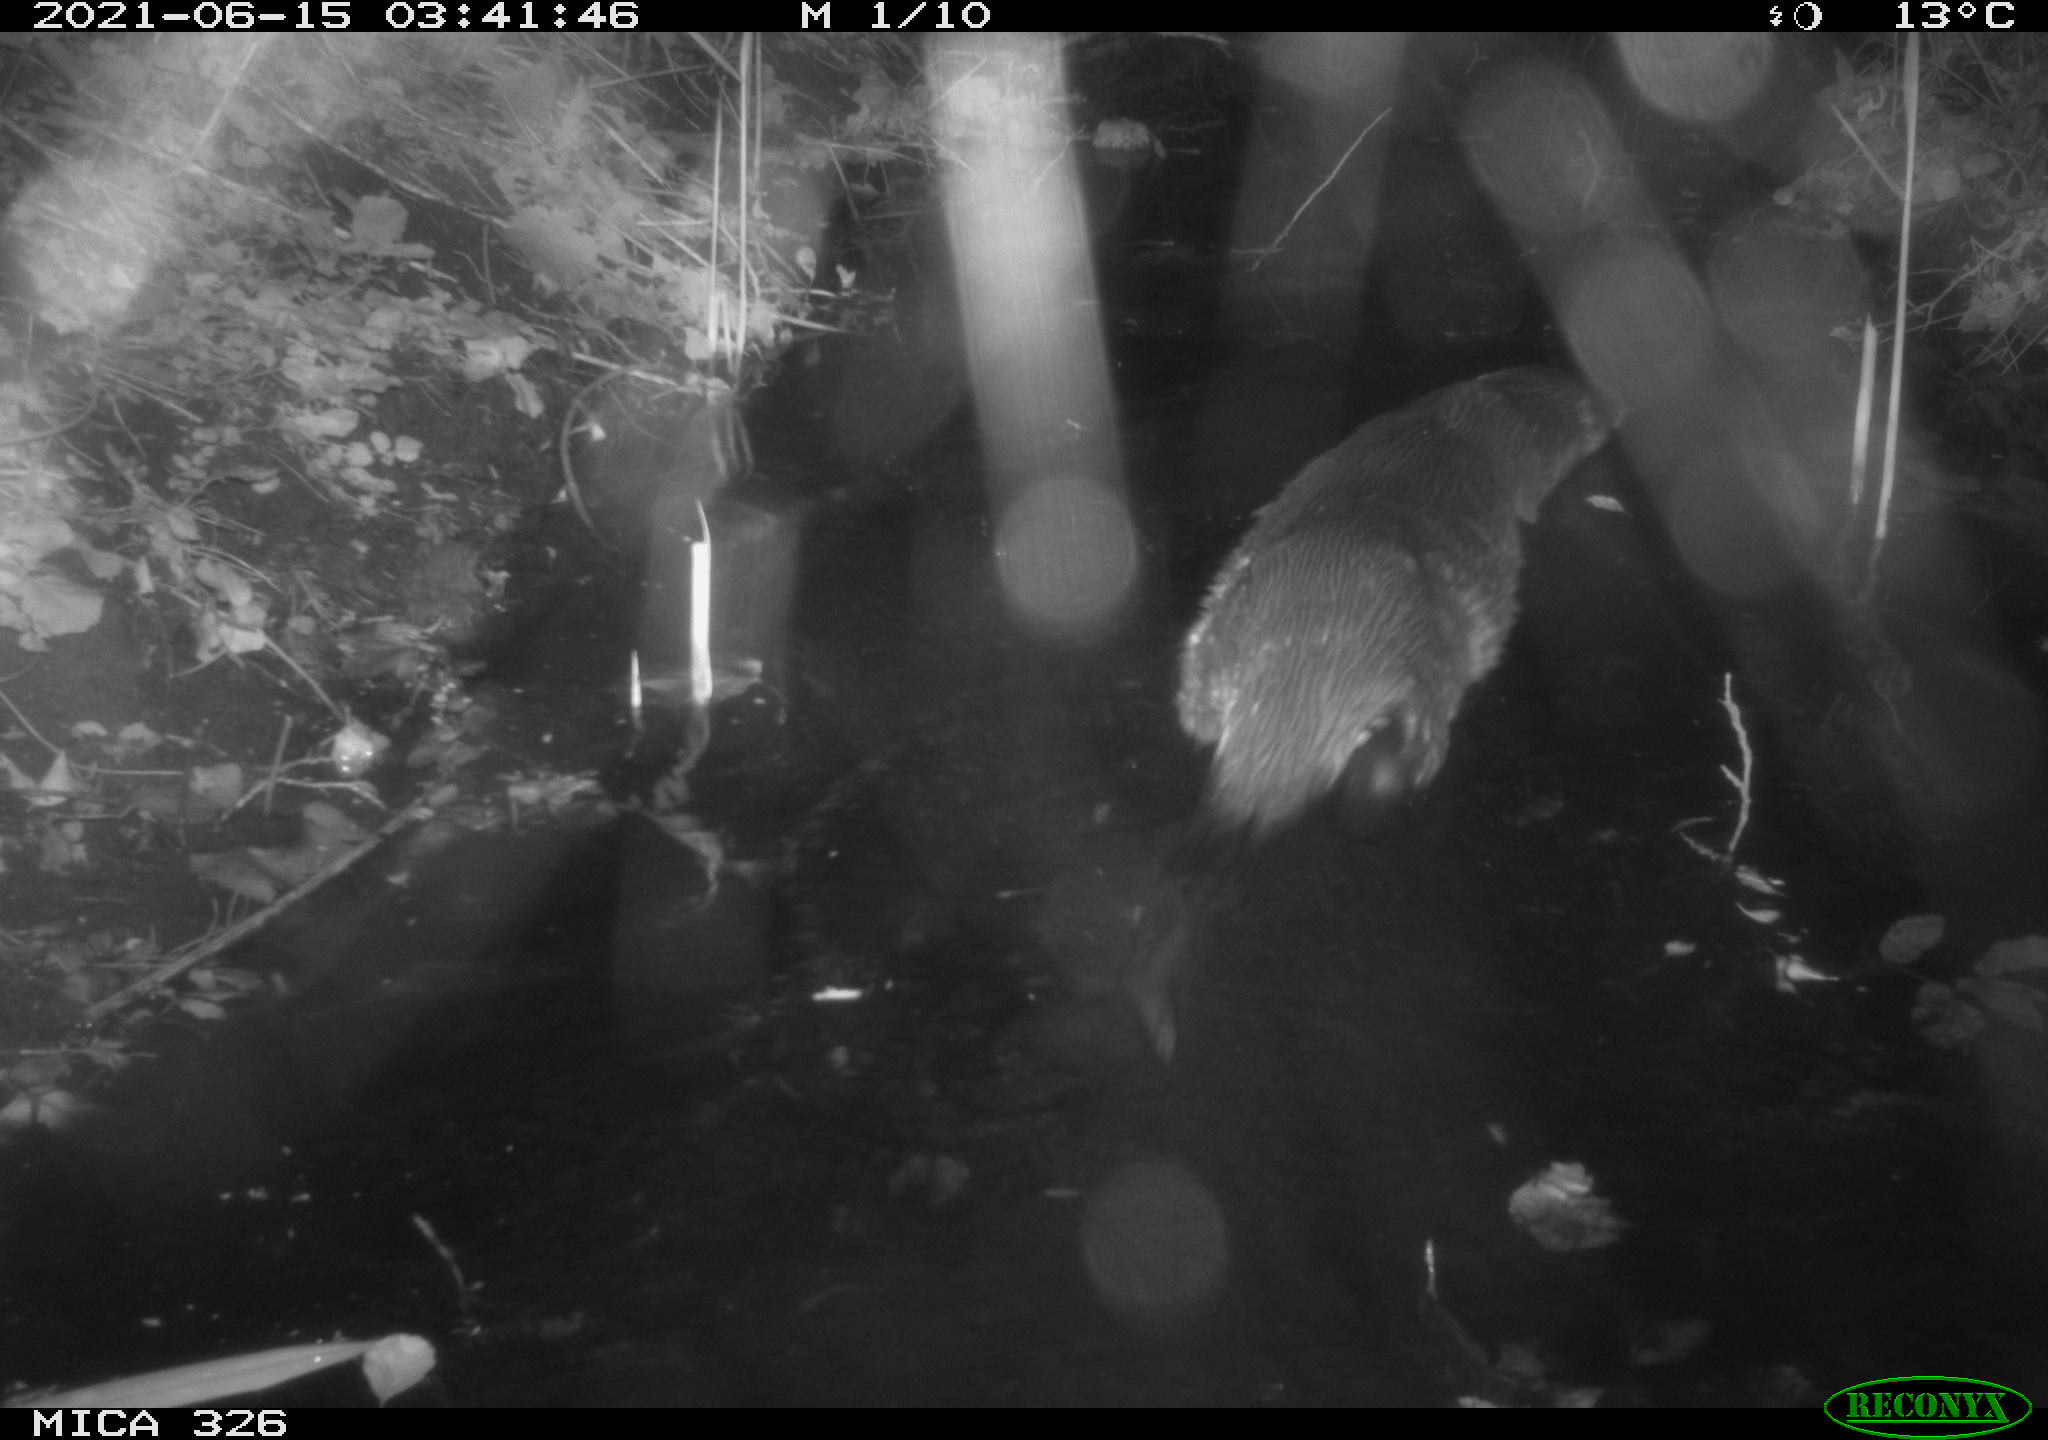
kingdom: Animalia
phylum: Chordata
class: Mammalia
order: Carnivora
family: Mustelidae
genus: Lutra
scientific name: Lutra lutra
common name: European otter
